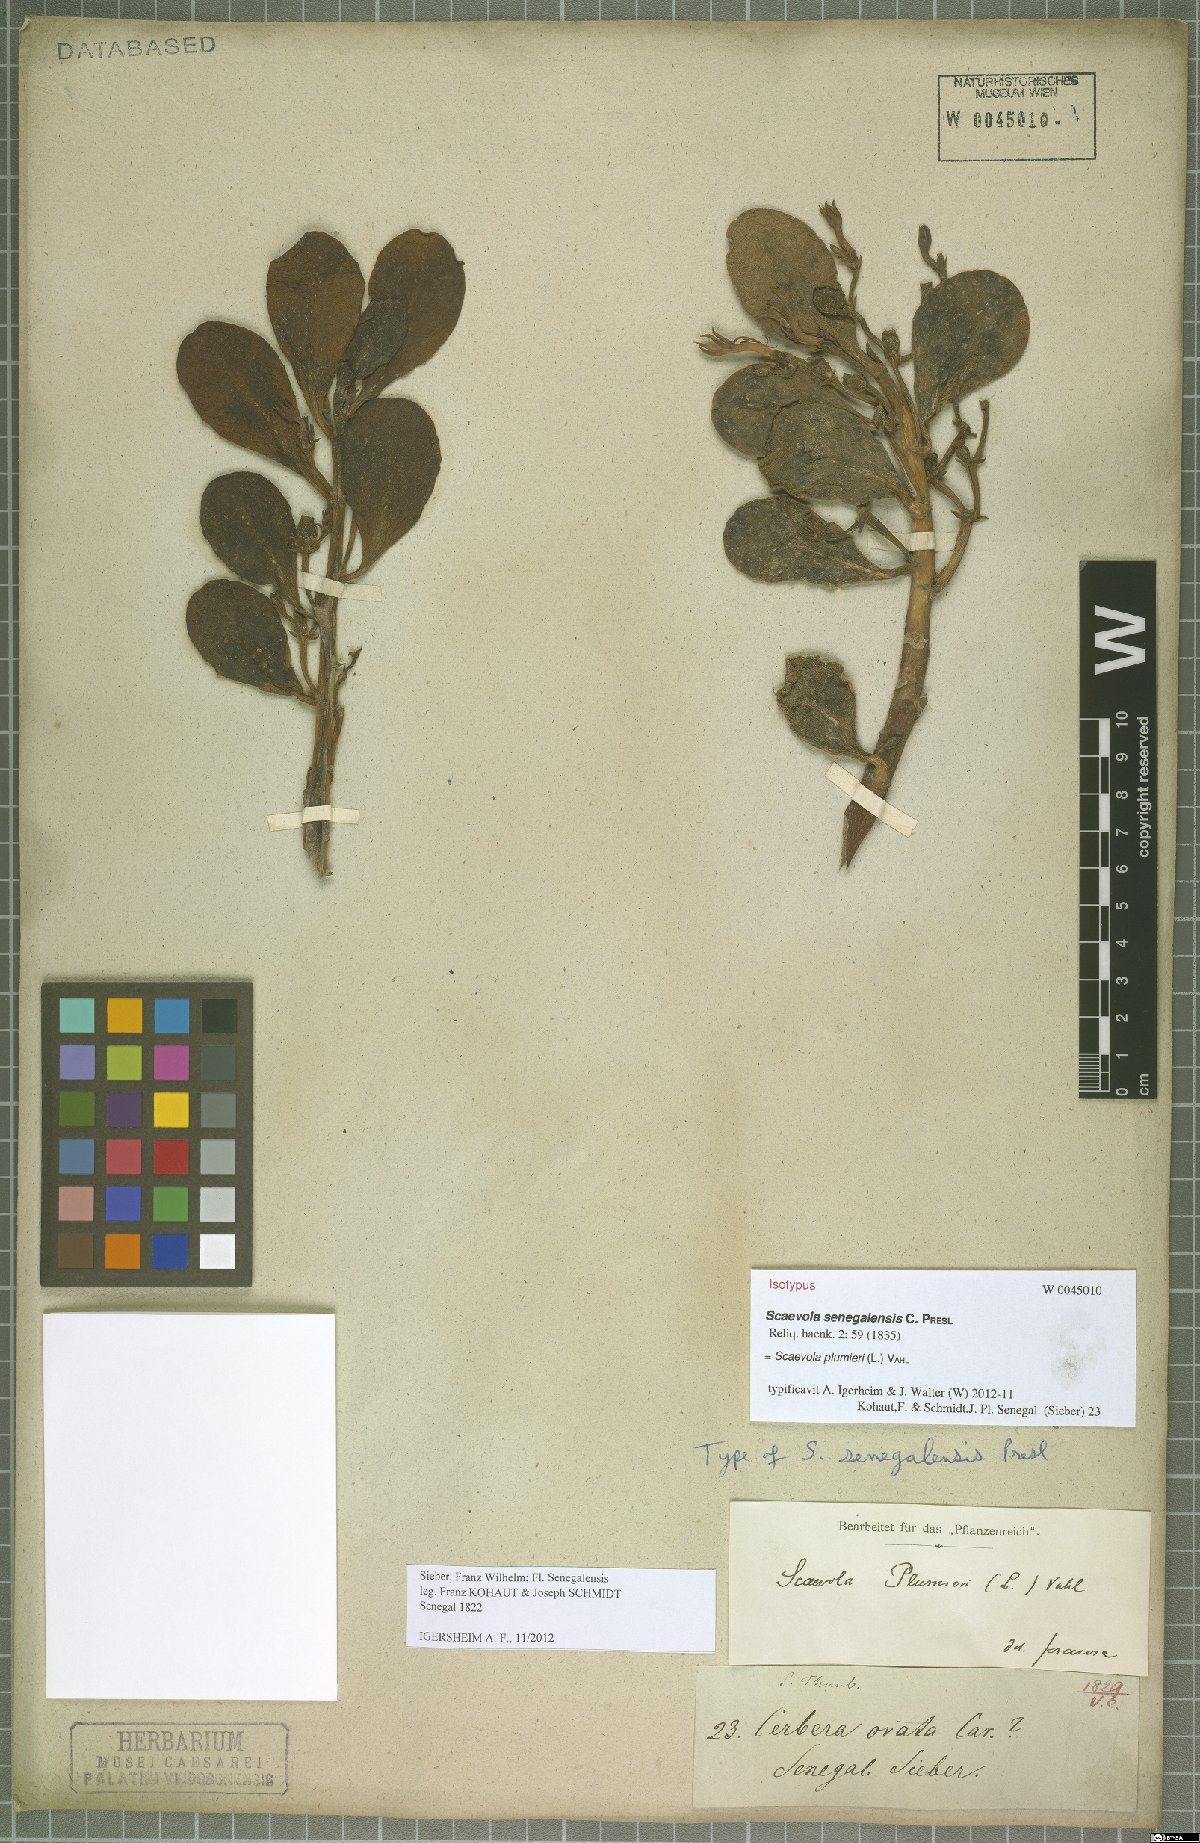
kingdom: Plantae
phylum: Tracheophyta
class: Magnoliopsida
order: Asterales
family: Goodeniaceae
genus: Scaevola
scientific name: Scaevola plumieri
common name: Gull feed
